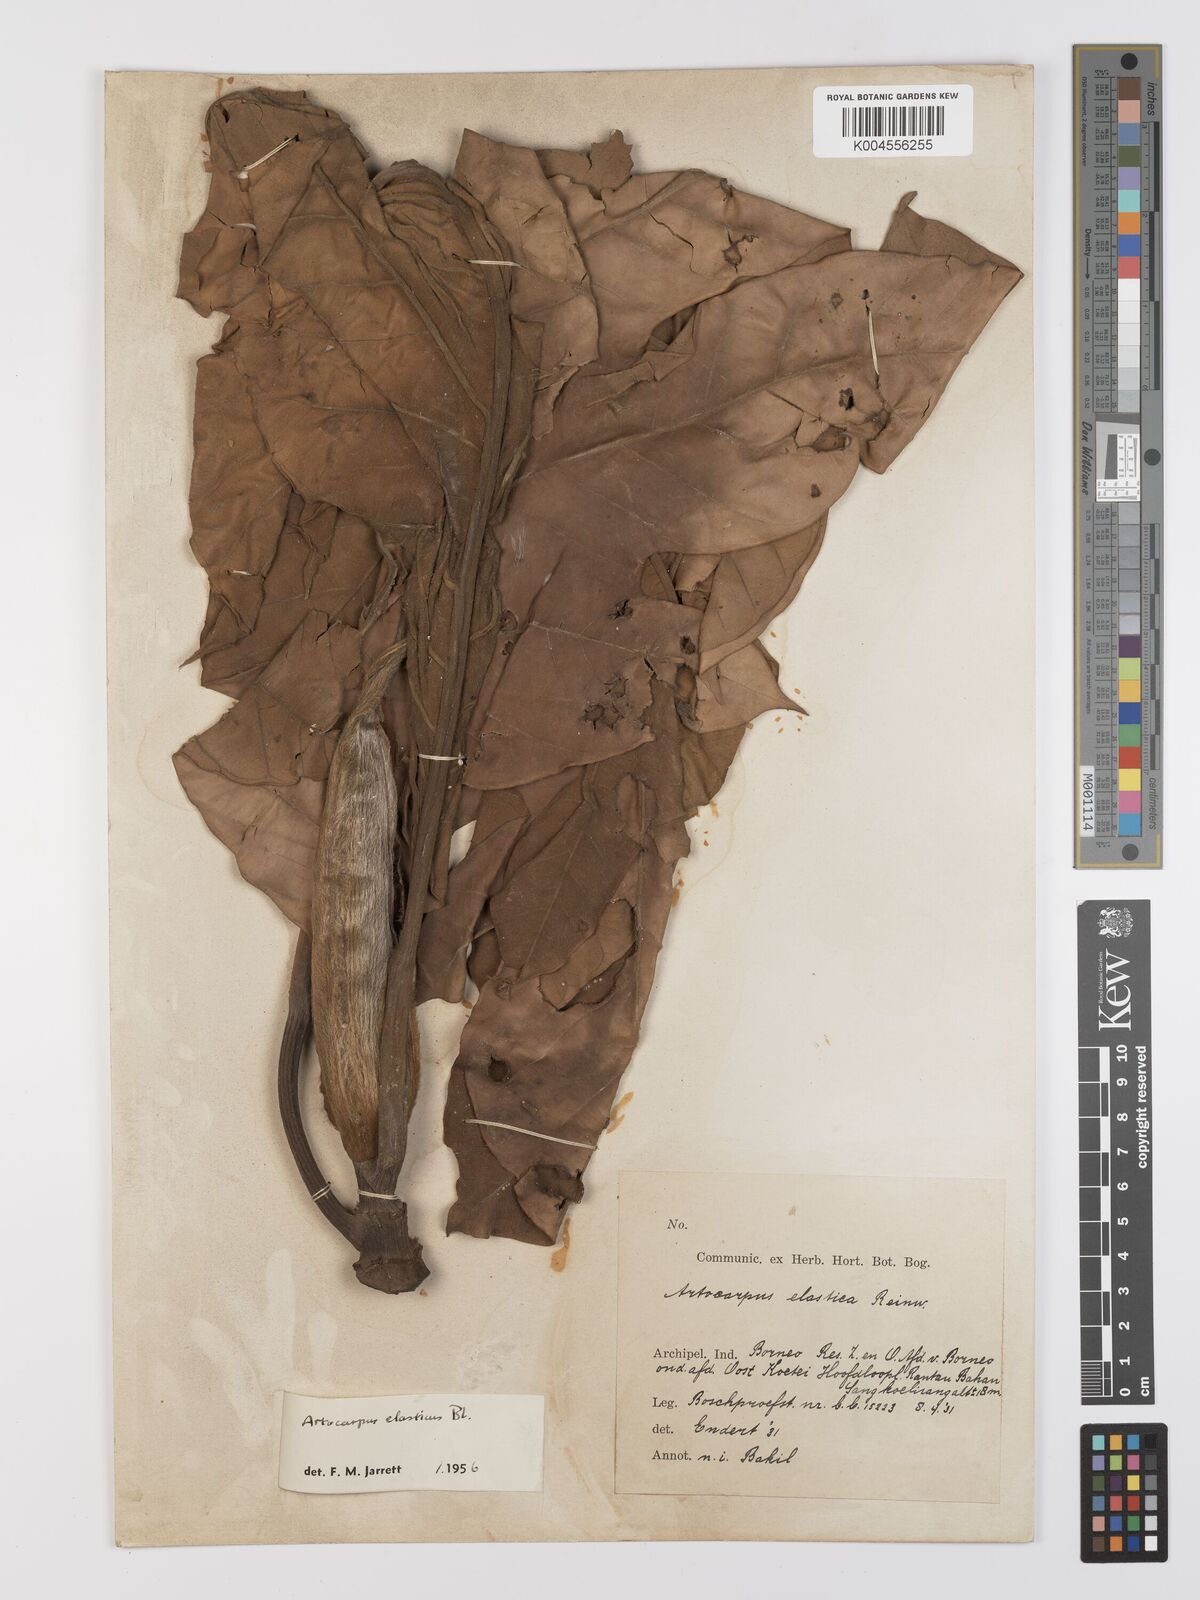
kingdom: Plantae
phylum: Tracheophyta
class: Magnoliopsida
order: Rosales
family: Moraceae
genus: Artocarpus
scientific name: Artocarpus elasticus
